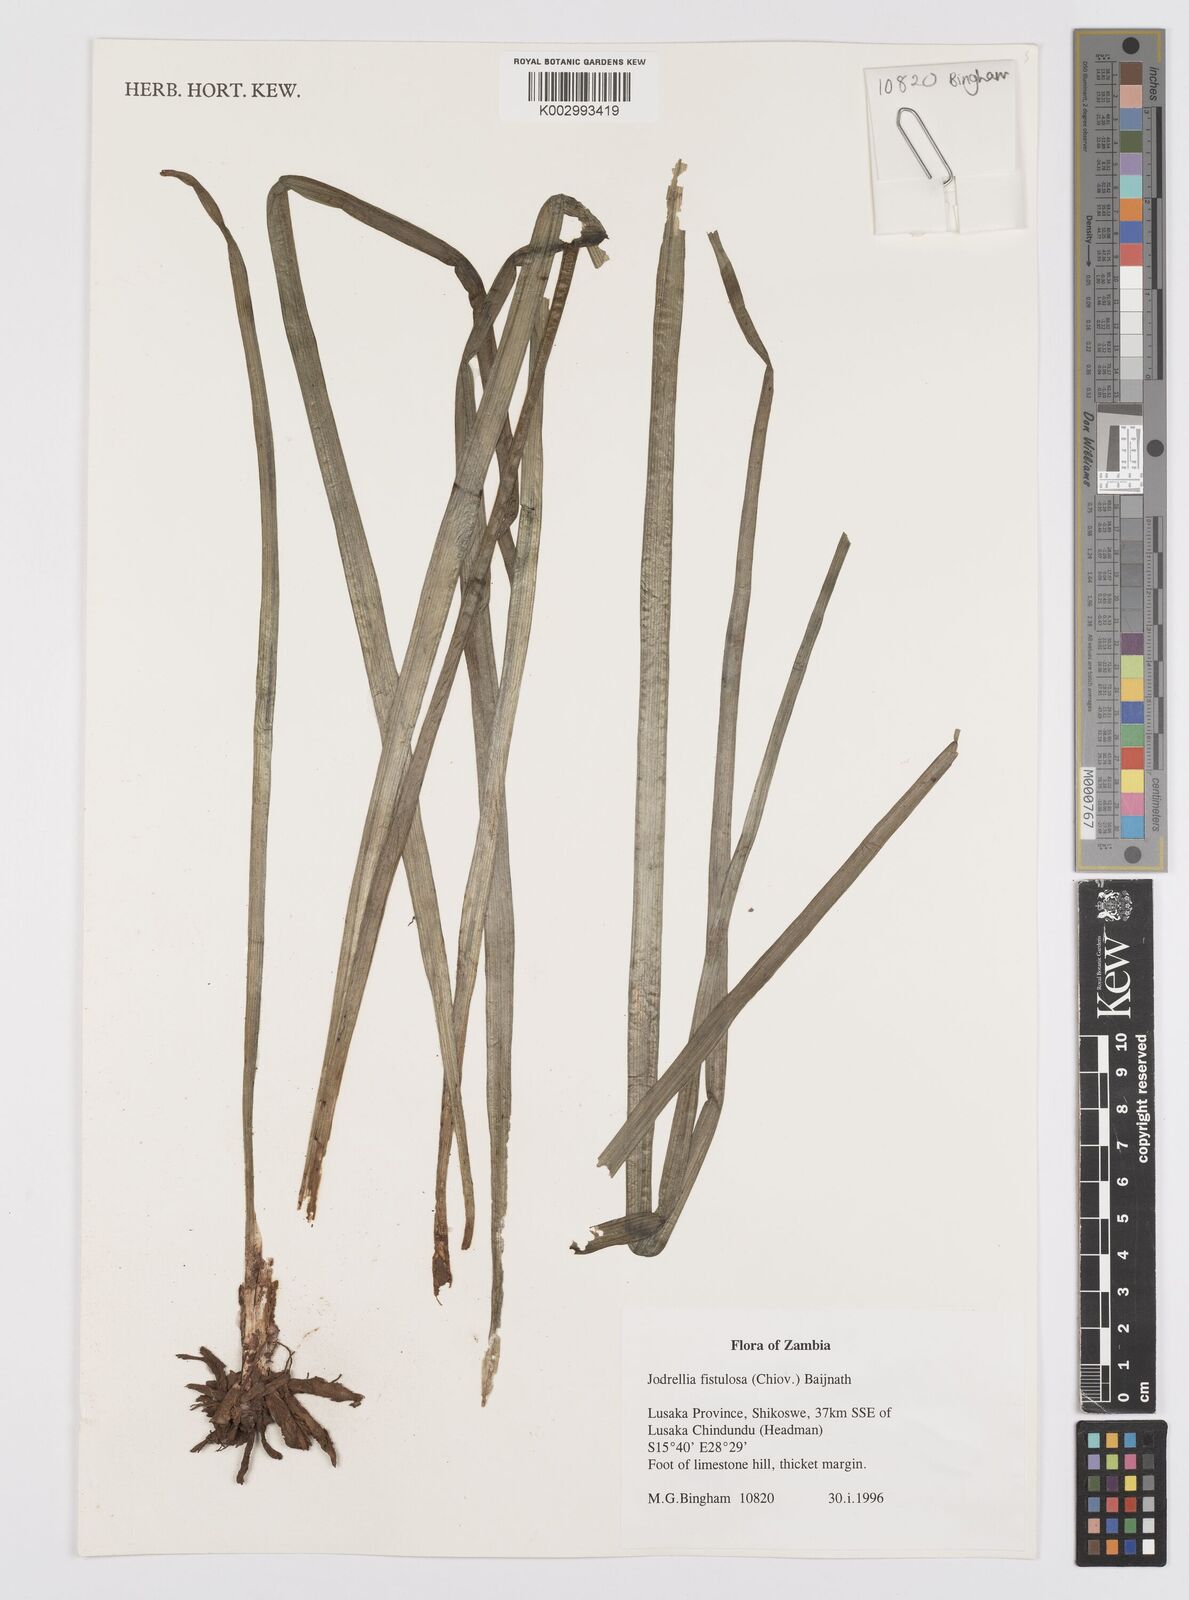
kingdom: Plantae
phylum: Tracheophyta
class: Liliopsida
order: Asparagales
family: Asphodelaceae
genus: Bulbine
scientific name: Bulbine fistulosa
